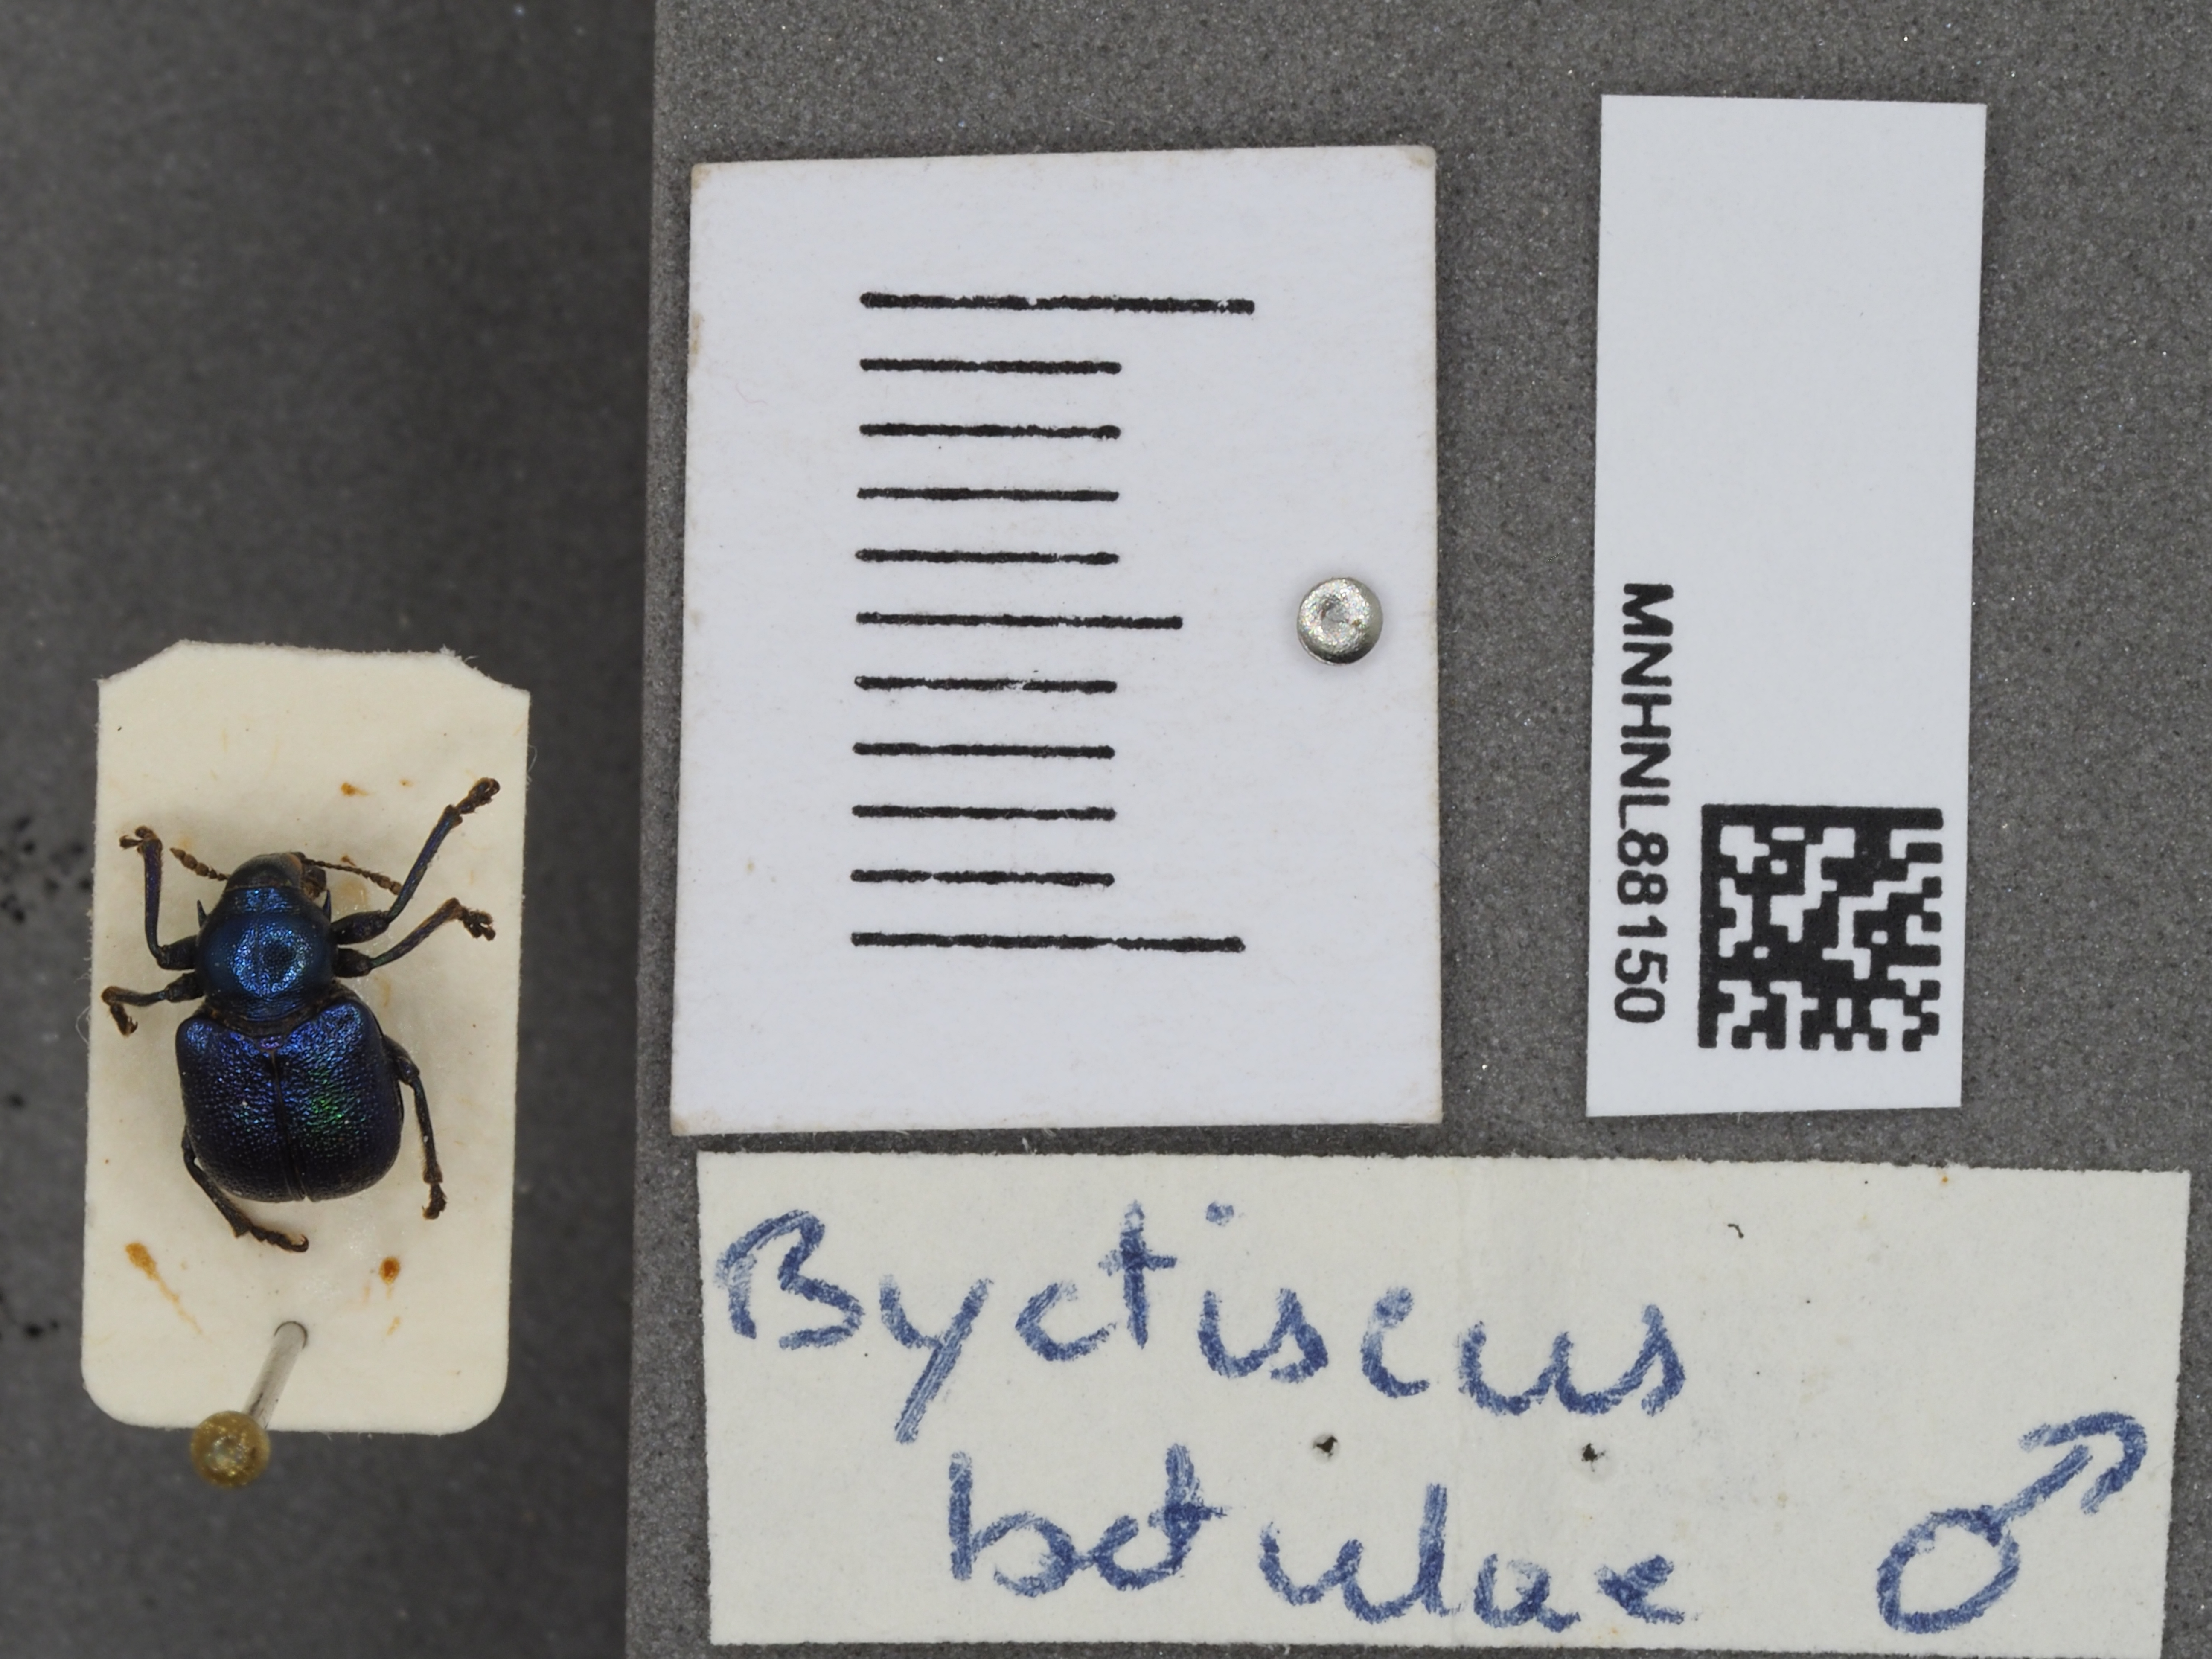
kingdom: Animalia
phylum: Arthropoda
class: Insecta
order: Coleoptera
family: Attelabidae
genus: Byctiscus
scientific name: Byctiscus betulae
